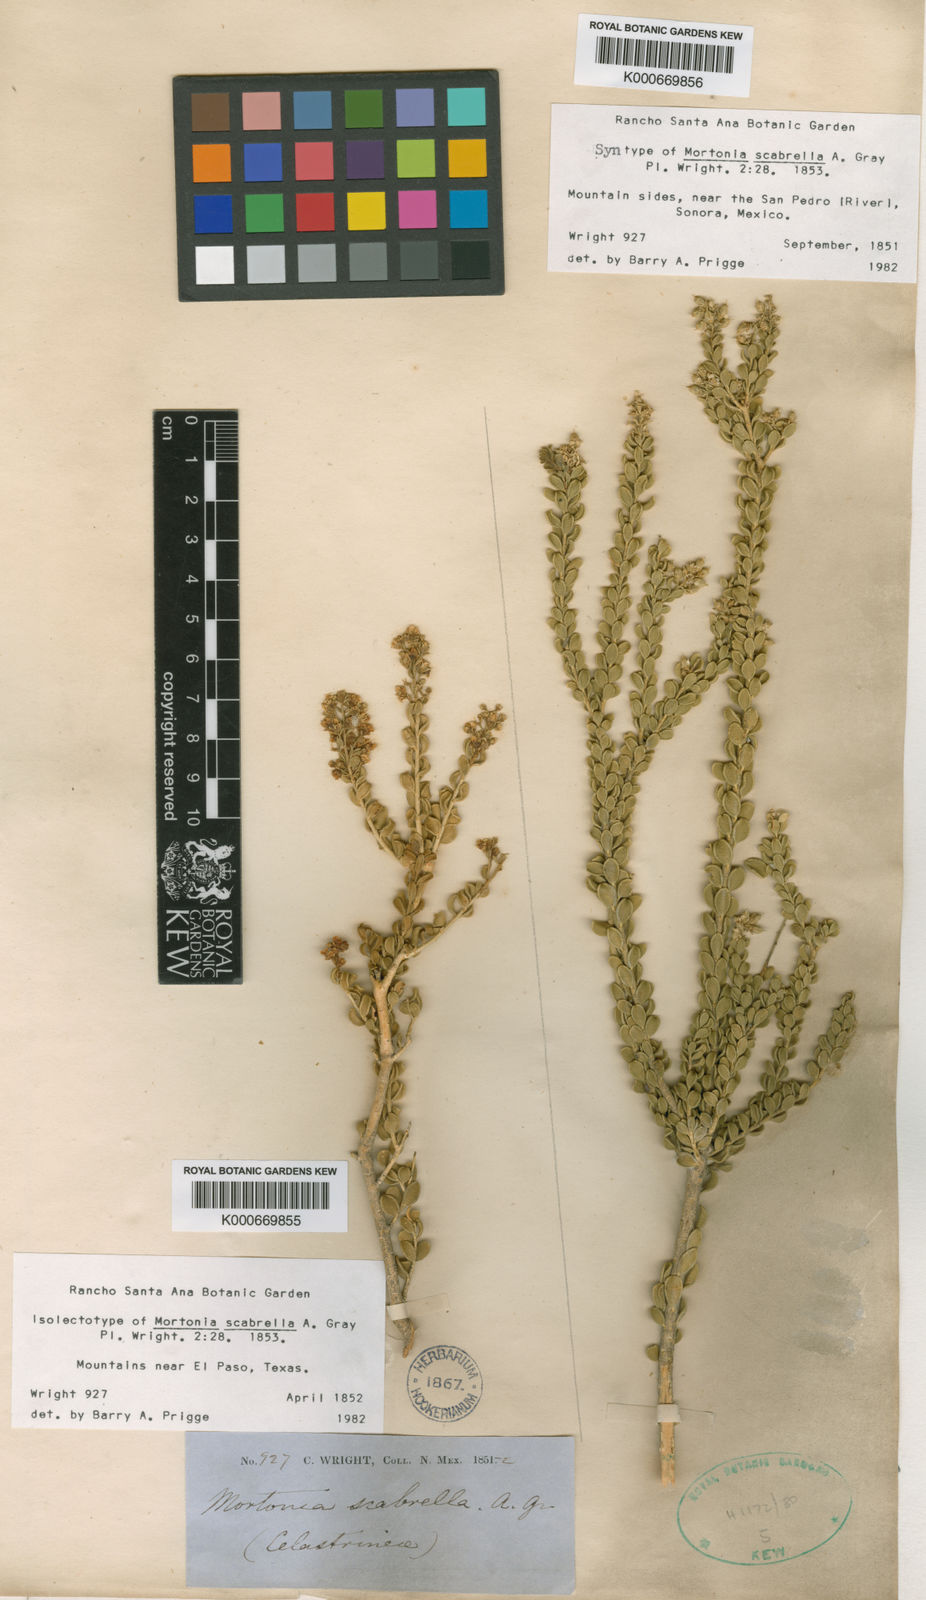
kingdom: Plantae
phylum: Tracheophyta
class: Magnoliopsida
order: Celastrales
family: Celastraceae
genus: Mortonia
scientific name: Mortonia sempervirens
